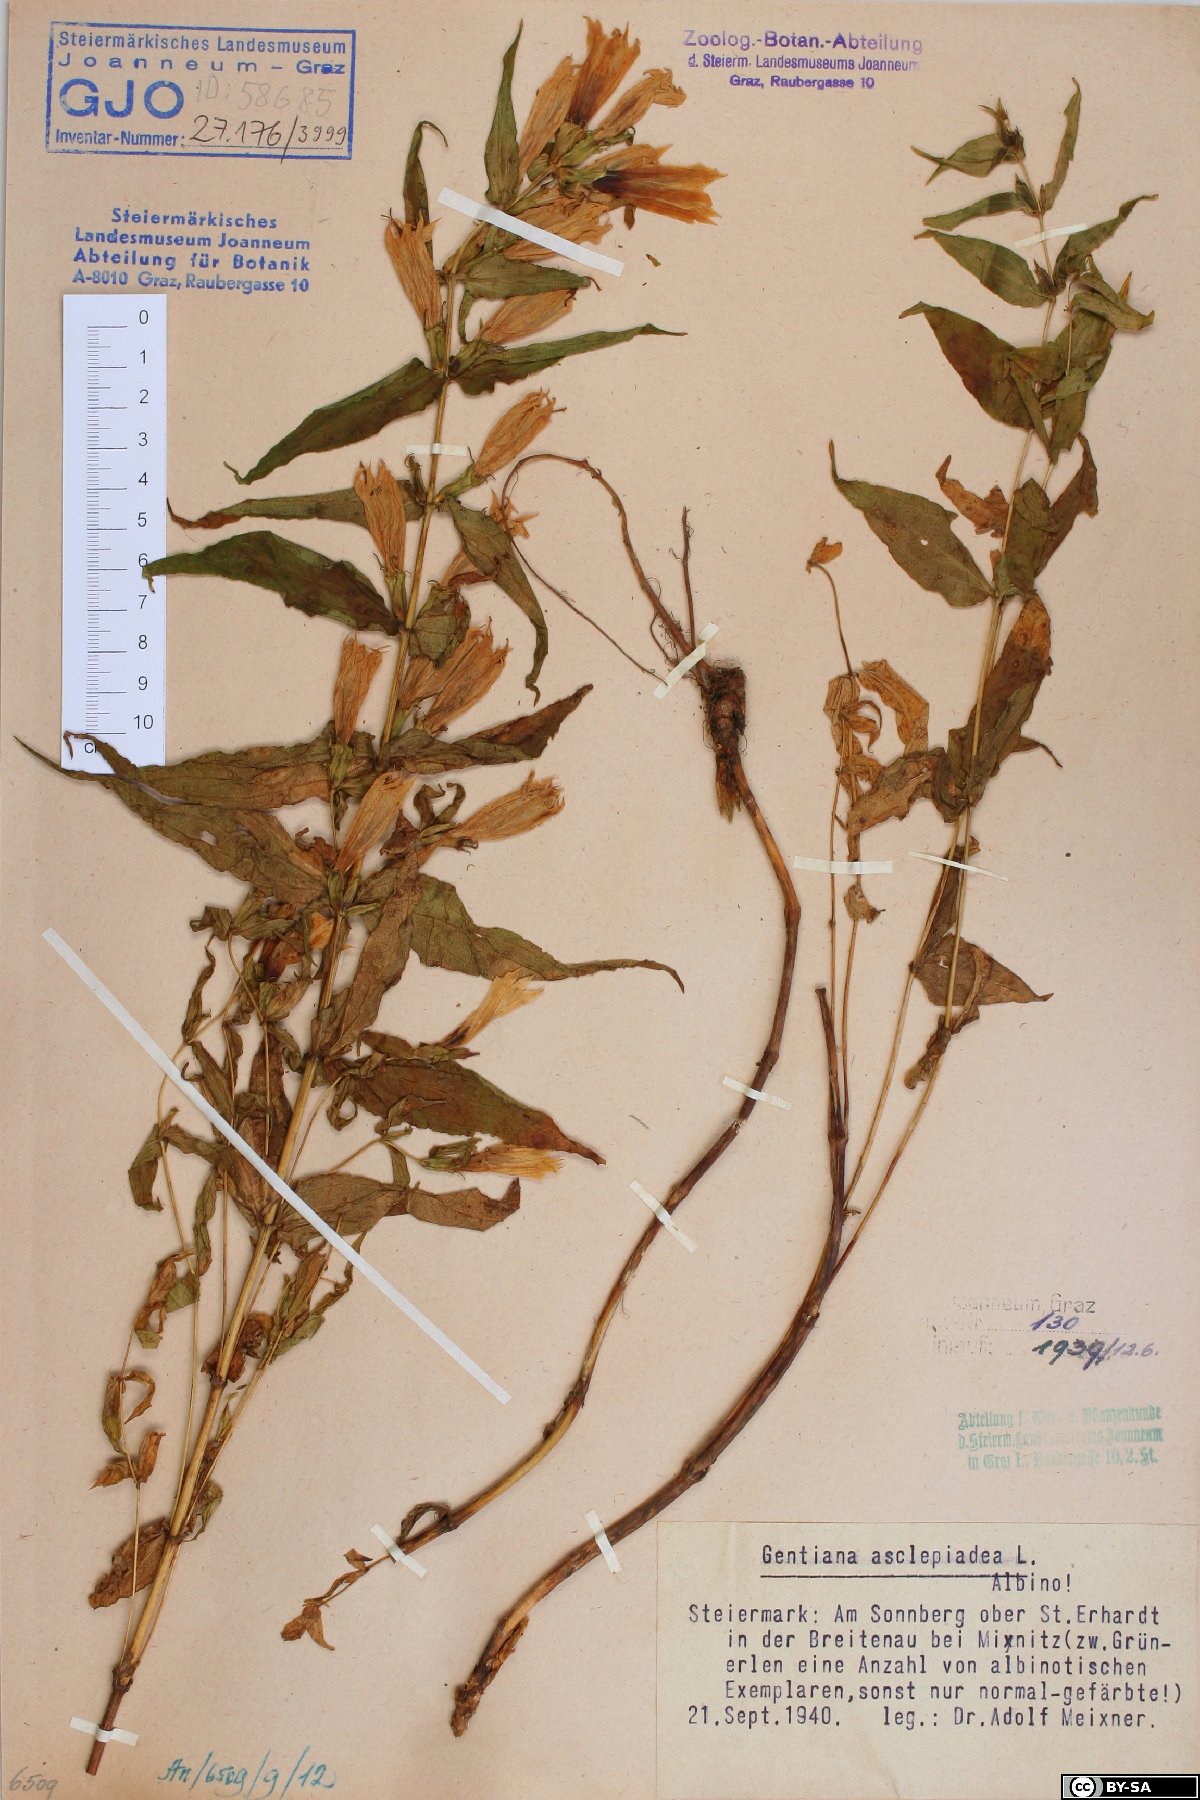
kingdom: Plantae
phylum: Tracheophyta
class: Magnoliopsida
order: Gentianales
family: Gentianaceae
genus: Gentiana
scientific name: Gentiana asclepiadea
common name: Willow gentian
